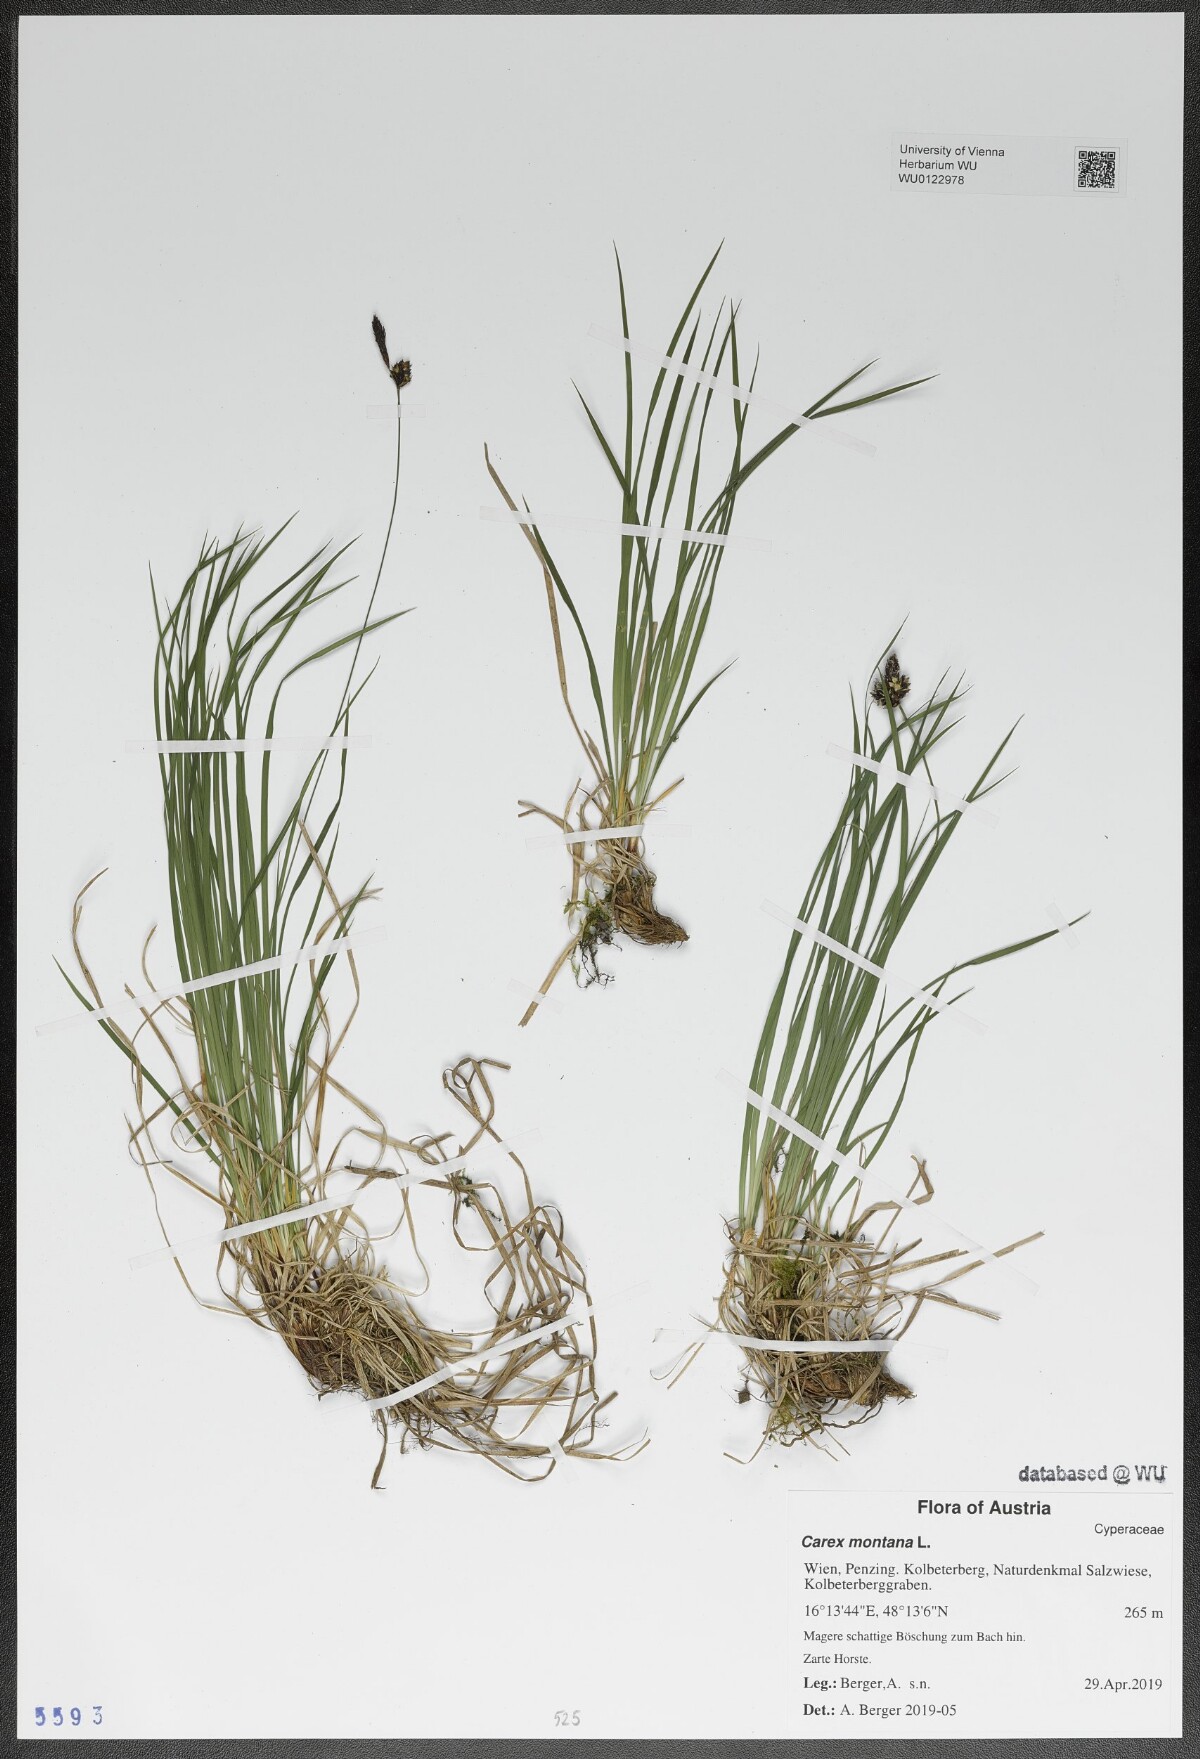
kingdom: Plantae
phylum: Tracheophyta
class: Liliopsida
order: Poales
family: Cyperaceae
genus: Carex
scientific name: Carex montana
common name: Soft-leaved sedge
